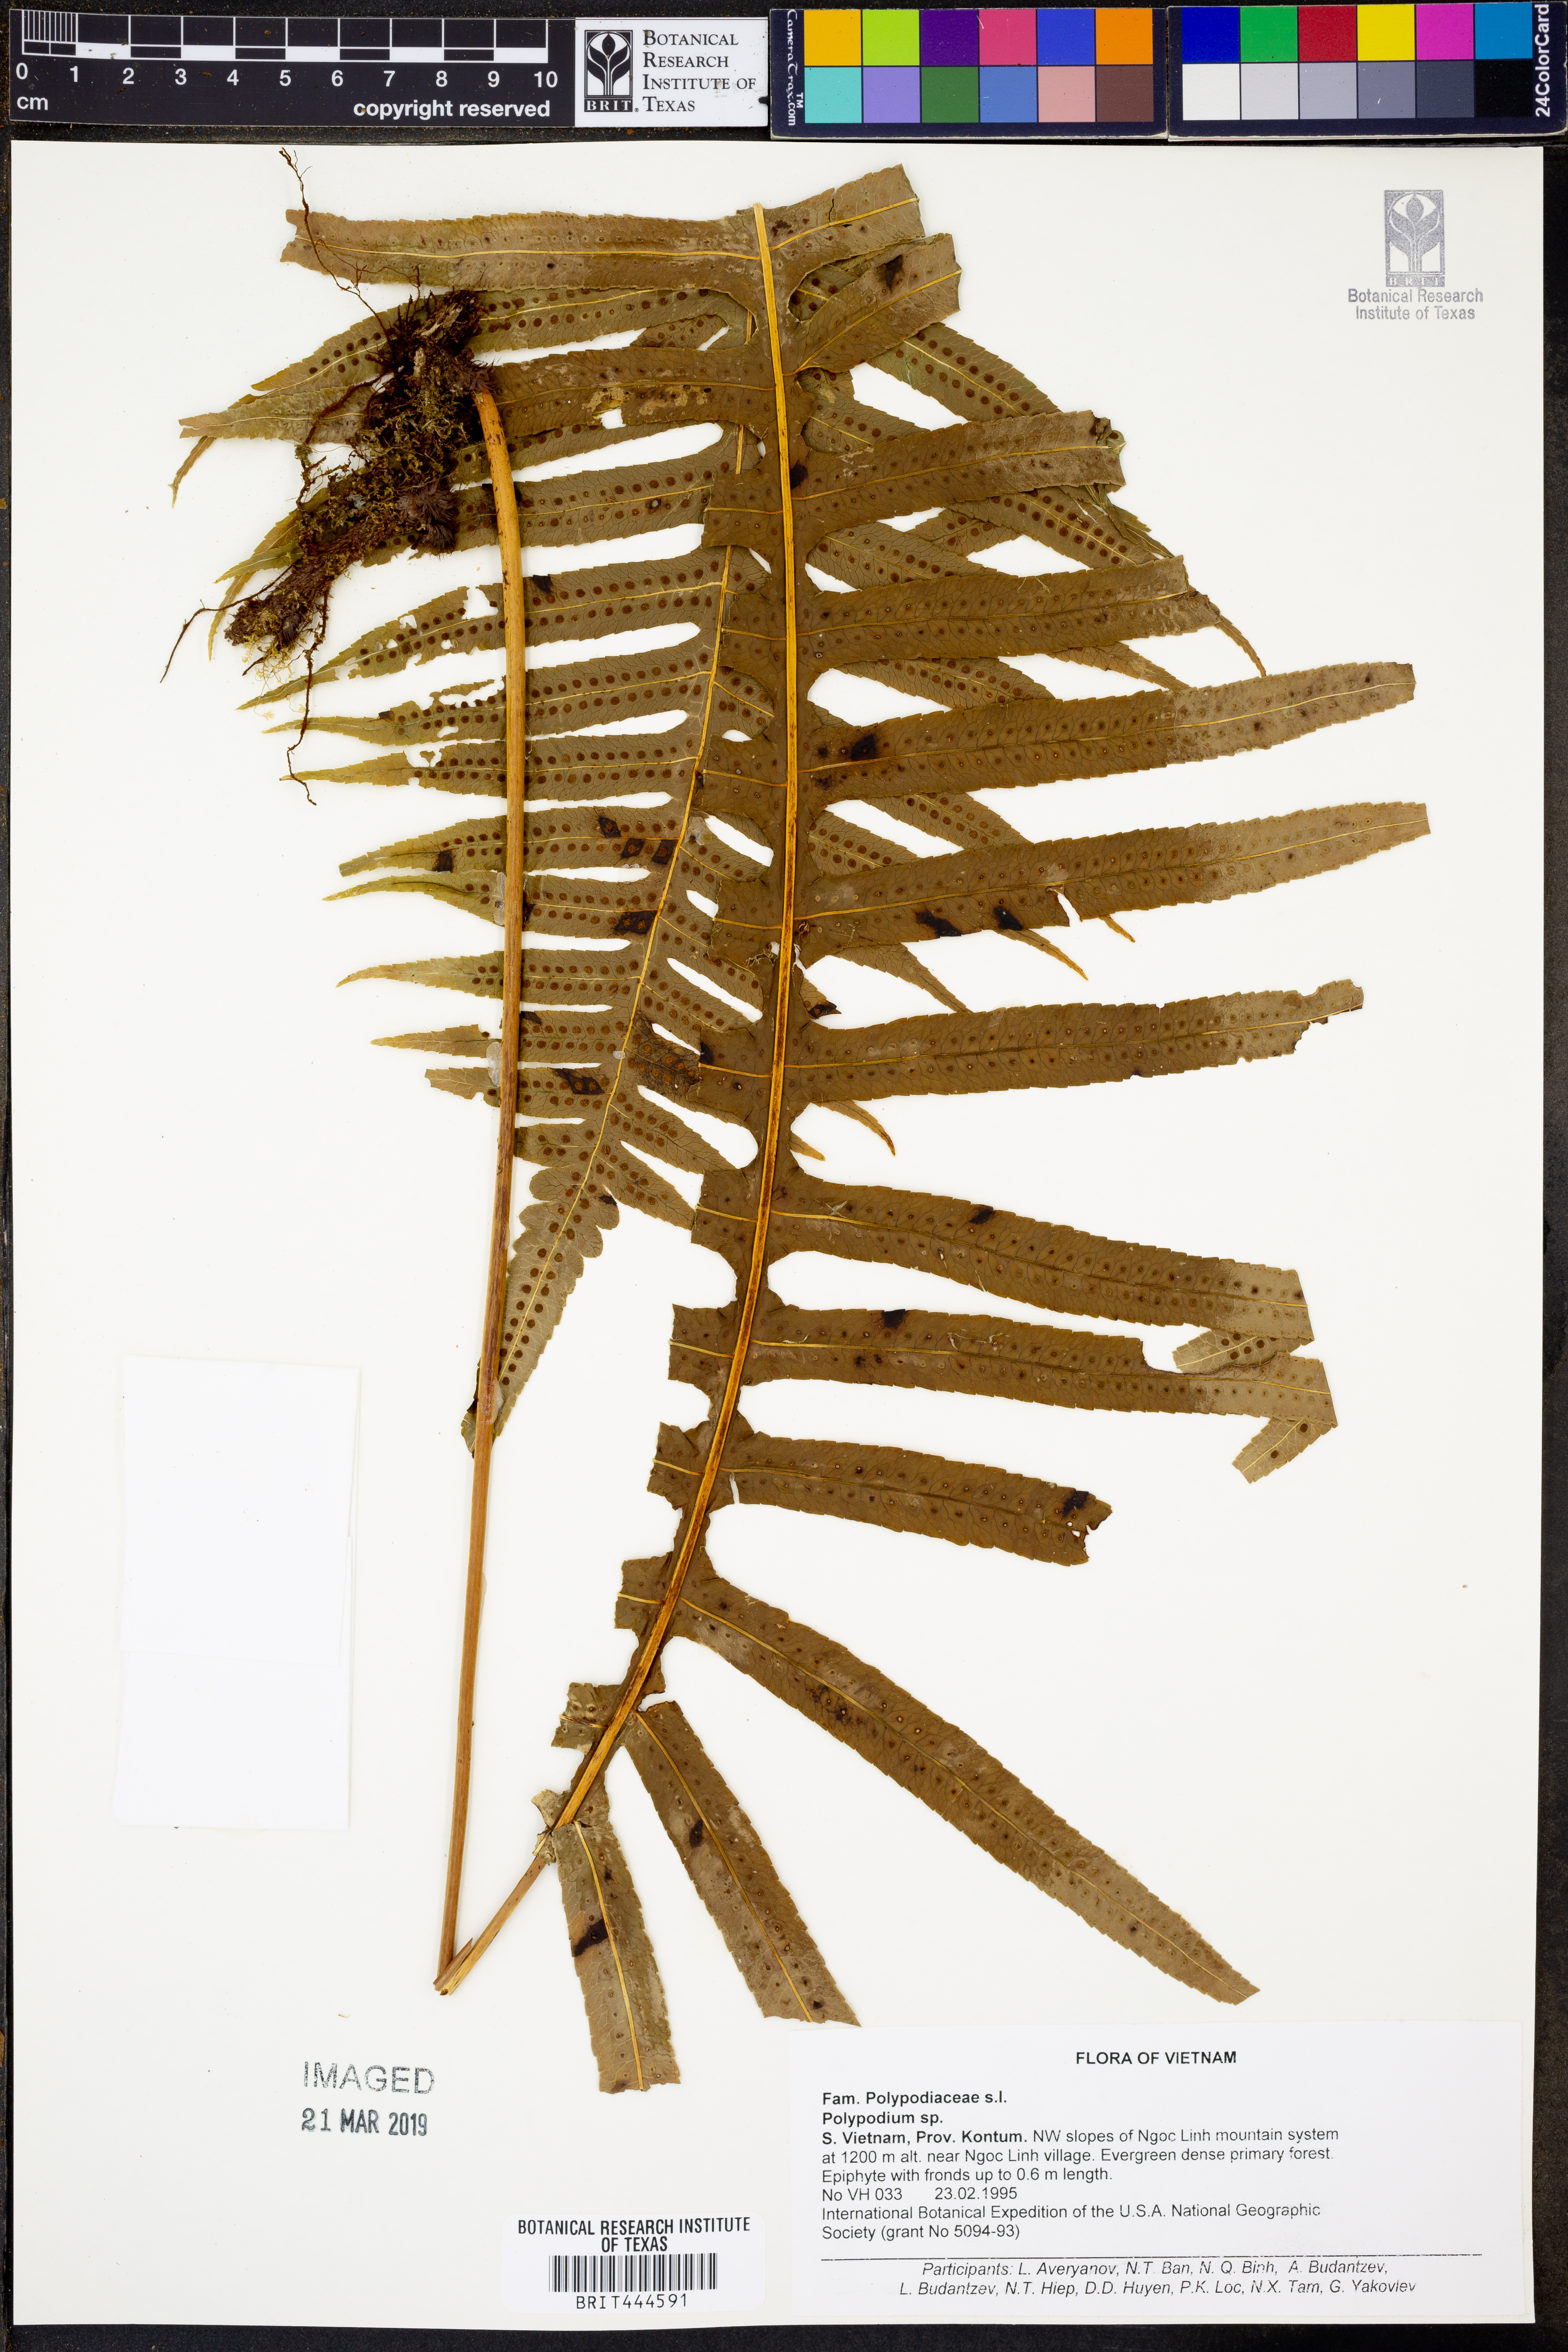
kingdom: Plantae
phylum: Tracheophyta
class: Polypodiopsida
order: Polypodiales
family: Polypodiaceae
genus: Polypodium
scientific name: Polypodium
